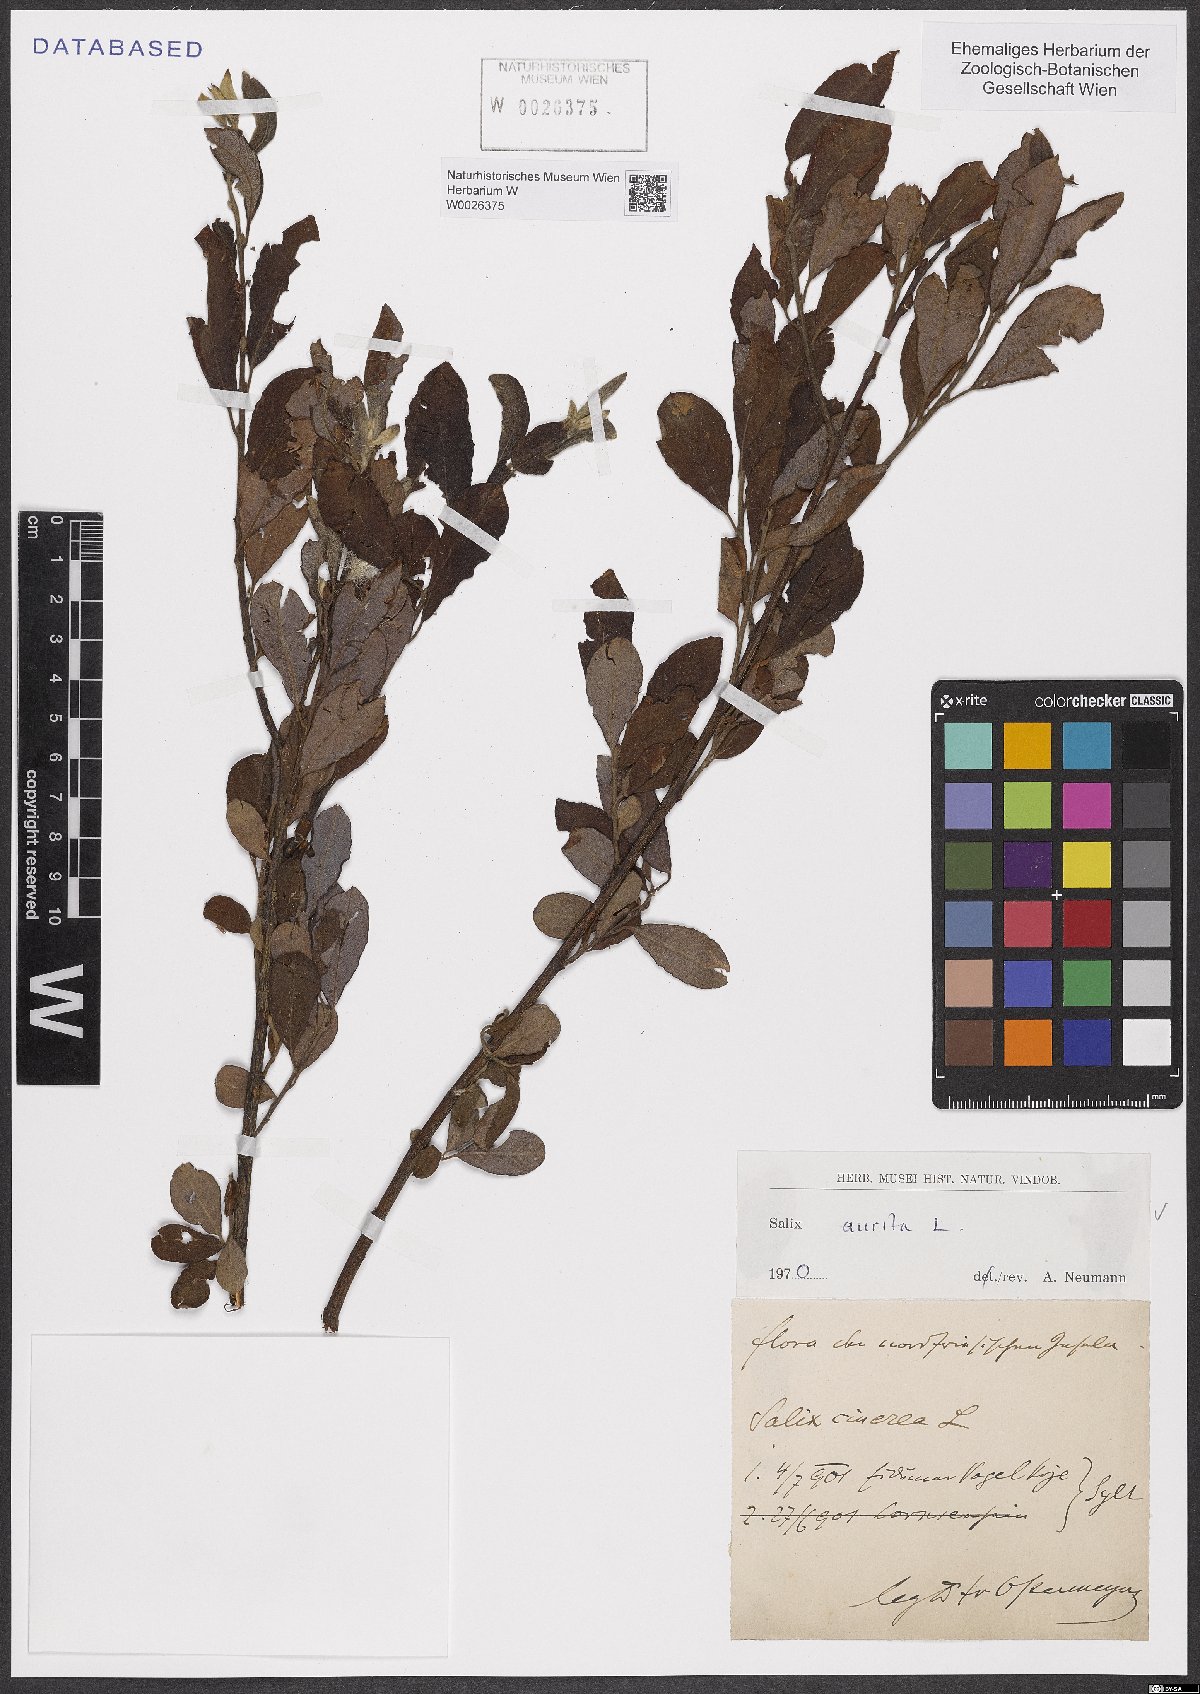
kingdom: Plantae
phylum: Tracheophyta
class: Magnoliopsida
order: Malpighiales
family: Salicaceae
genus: Salix
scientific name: Salix aurita
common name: Eared willow
